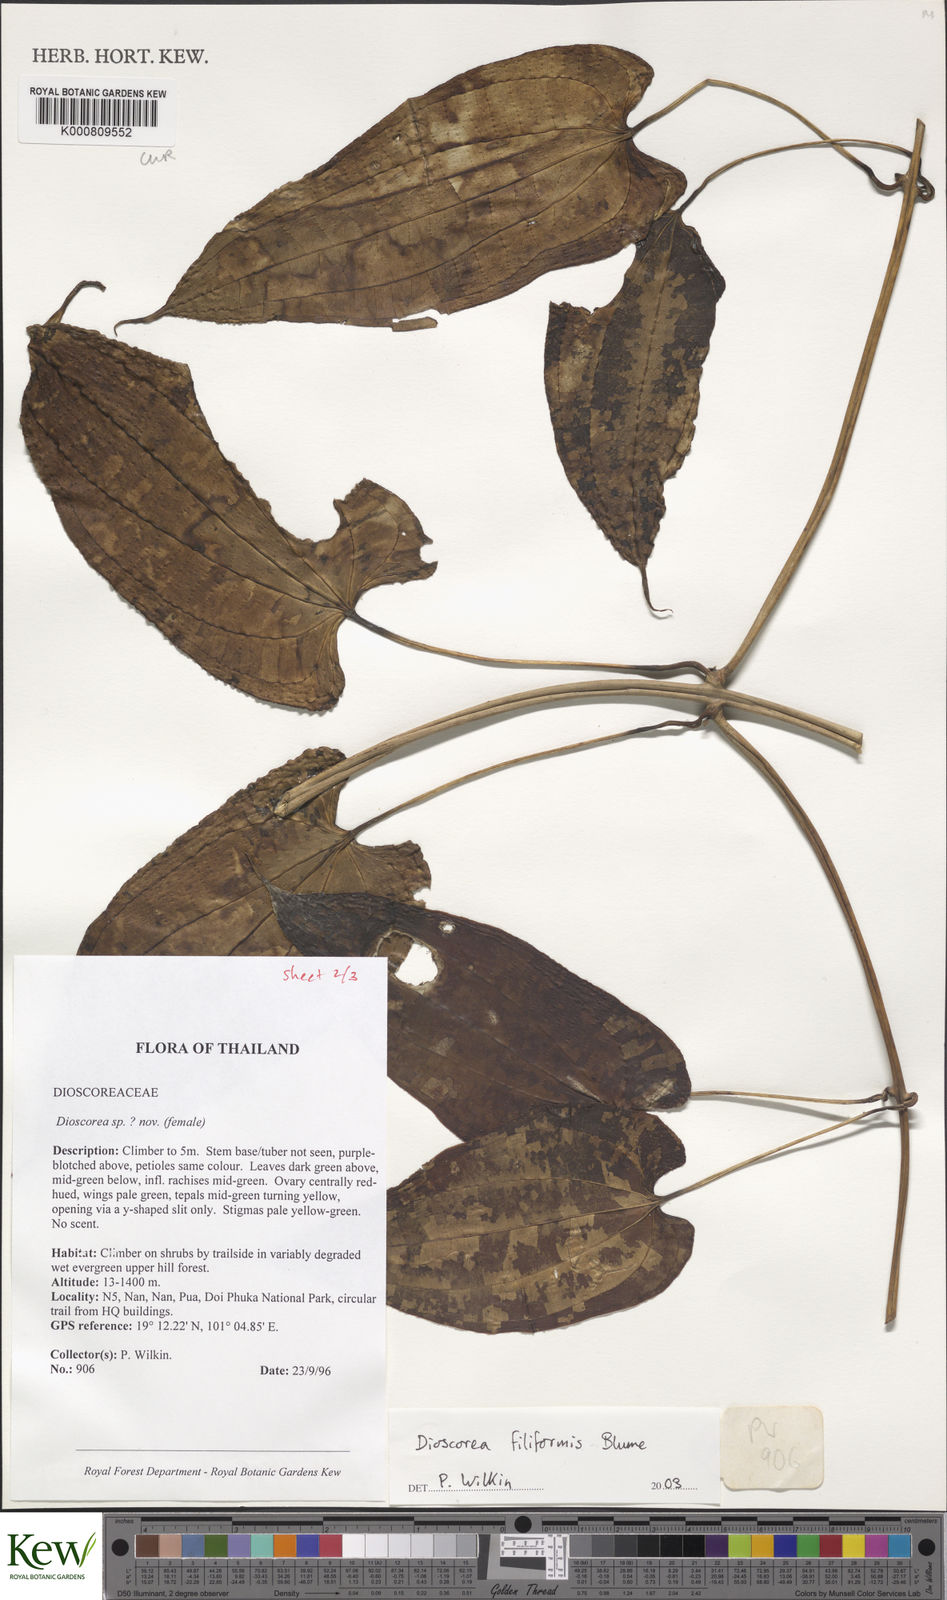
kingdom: Plantae
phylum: Tracheophyta
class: Liliopsida
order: Dioscoreales
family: Dioscoreaceae
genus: Dioscorea
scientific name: Dioscorea filiformis
